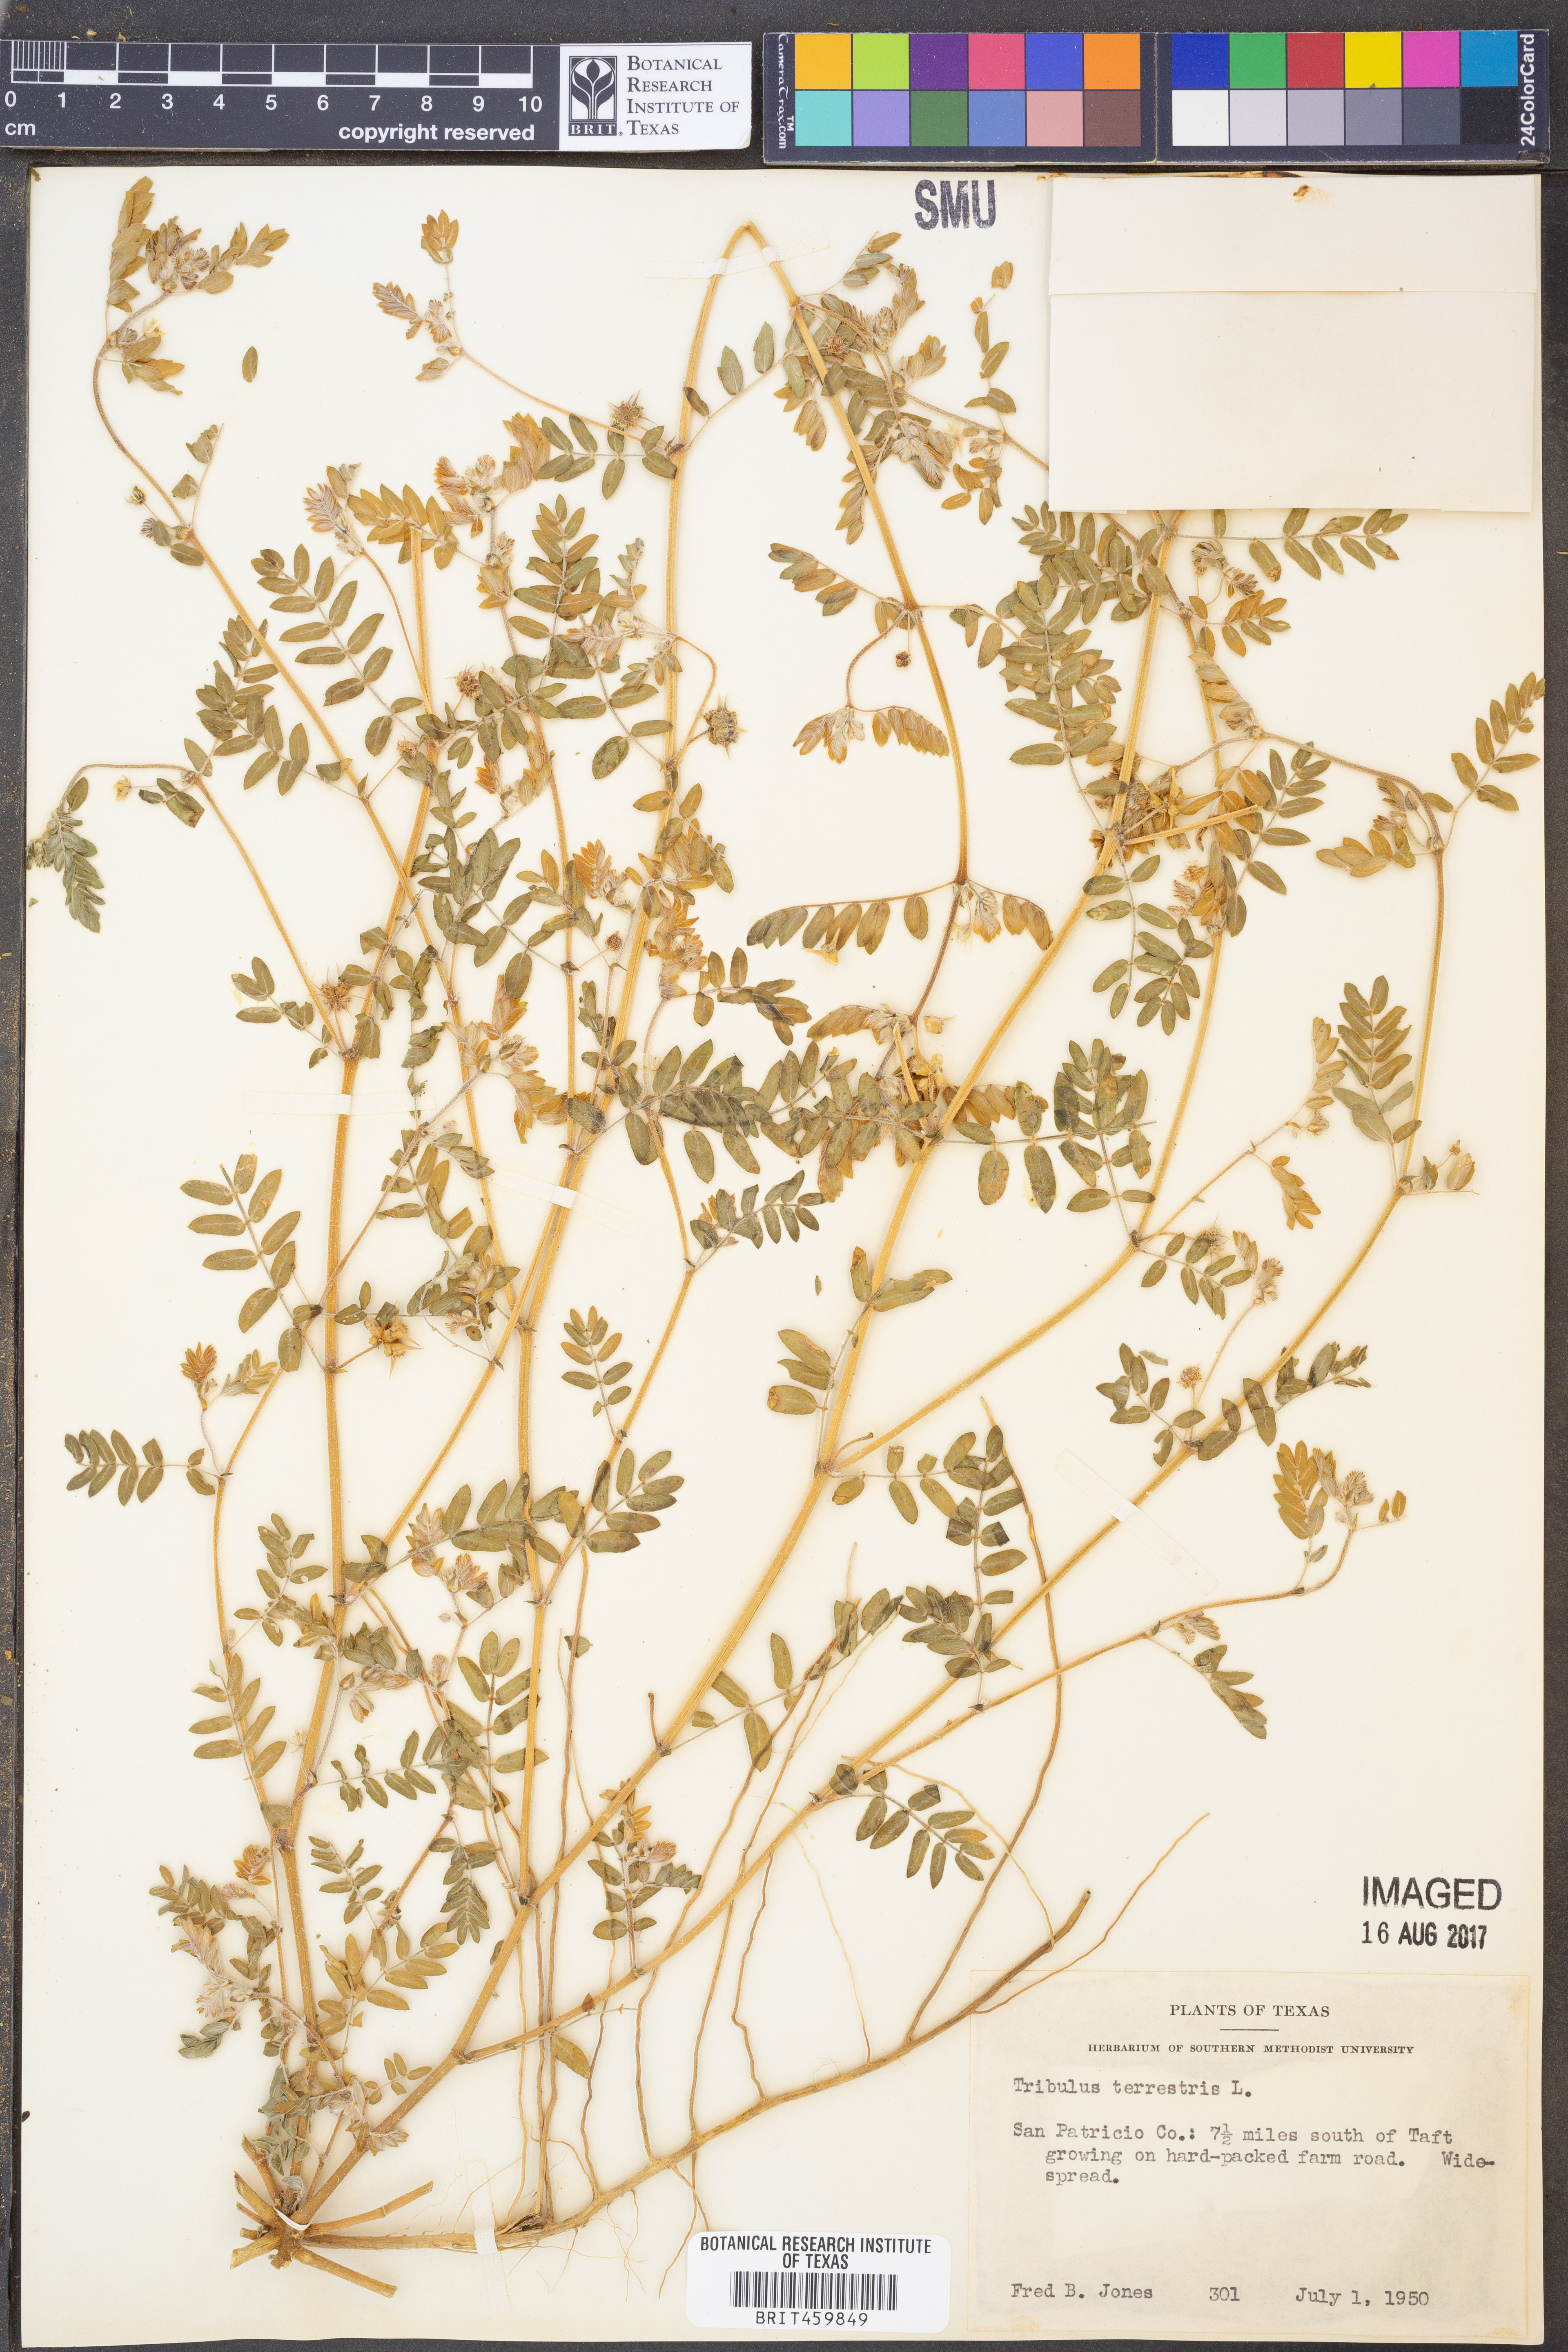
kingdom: Plantae
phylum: Tracheophyta
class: Magnoliopsida
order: Zygophyllales
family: Zygophyllaceae
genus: Tribulus
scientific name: Tribulus terrestris
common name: Puncturevine
